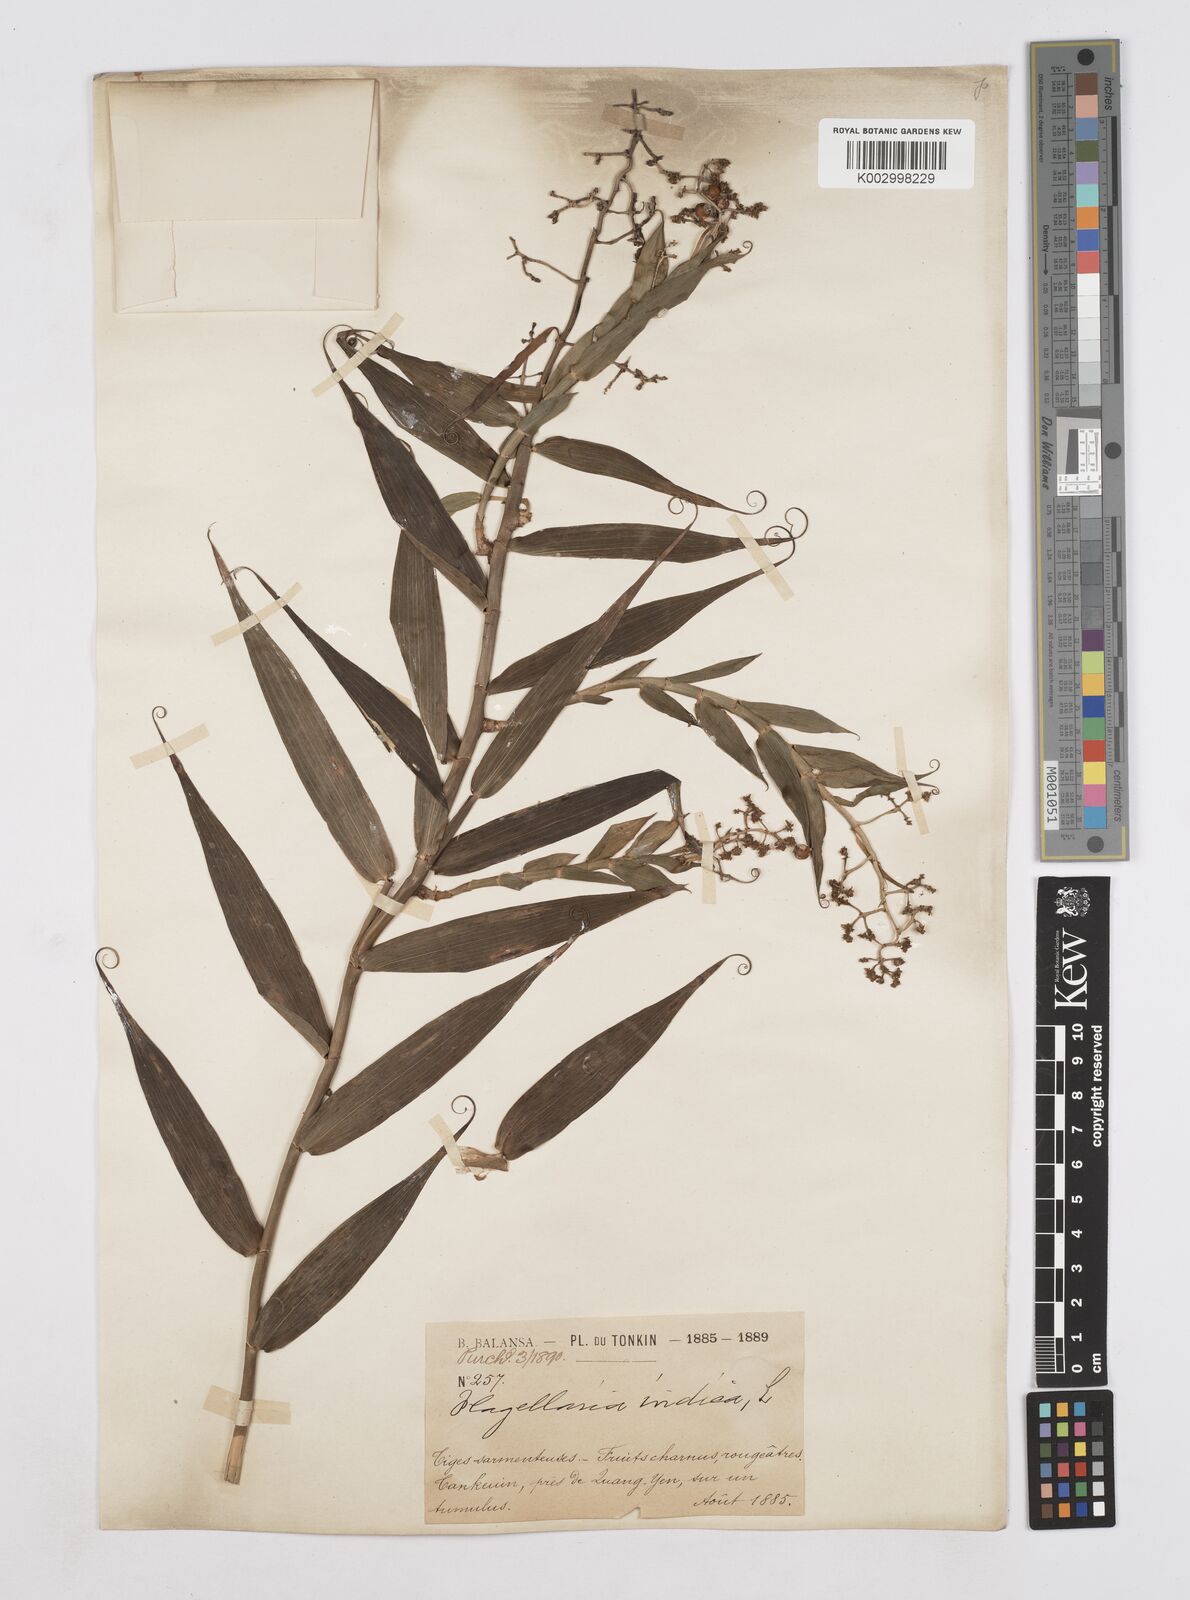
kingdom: Plantae
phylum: Tracheophyta
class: Liliopsida
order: Poales
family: Flagellariaceae
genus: Flagellaria
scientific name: Flagellaria indica
